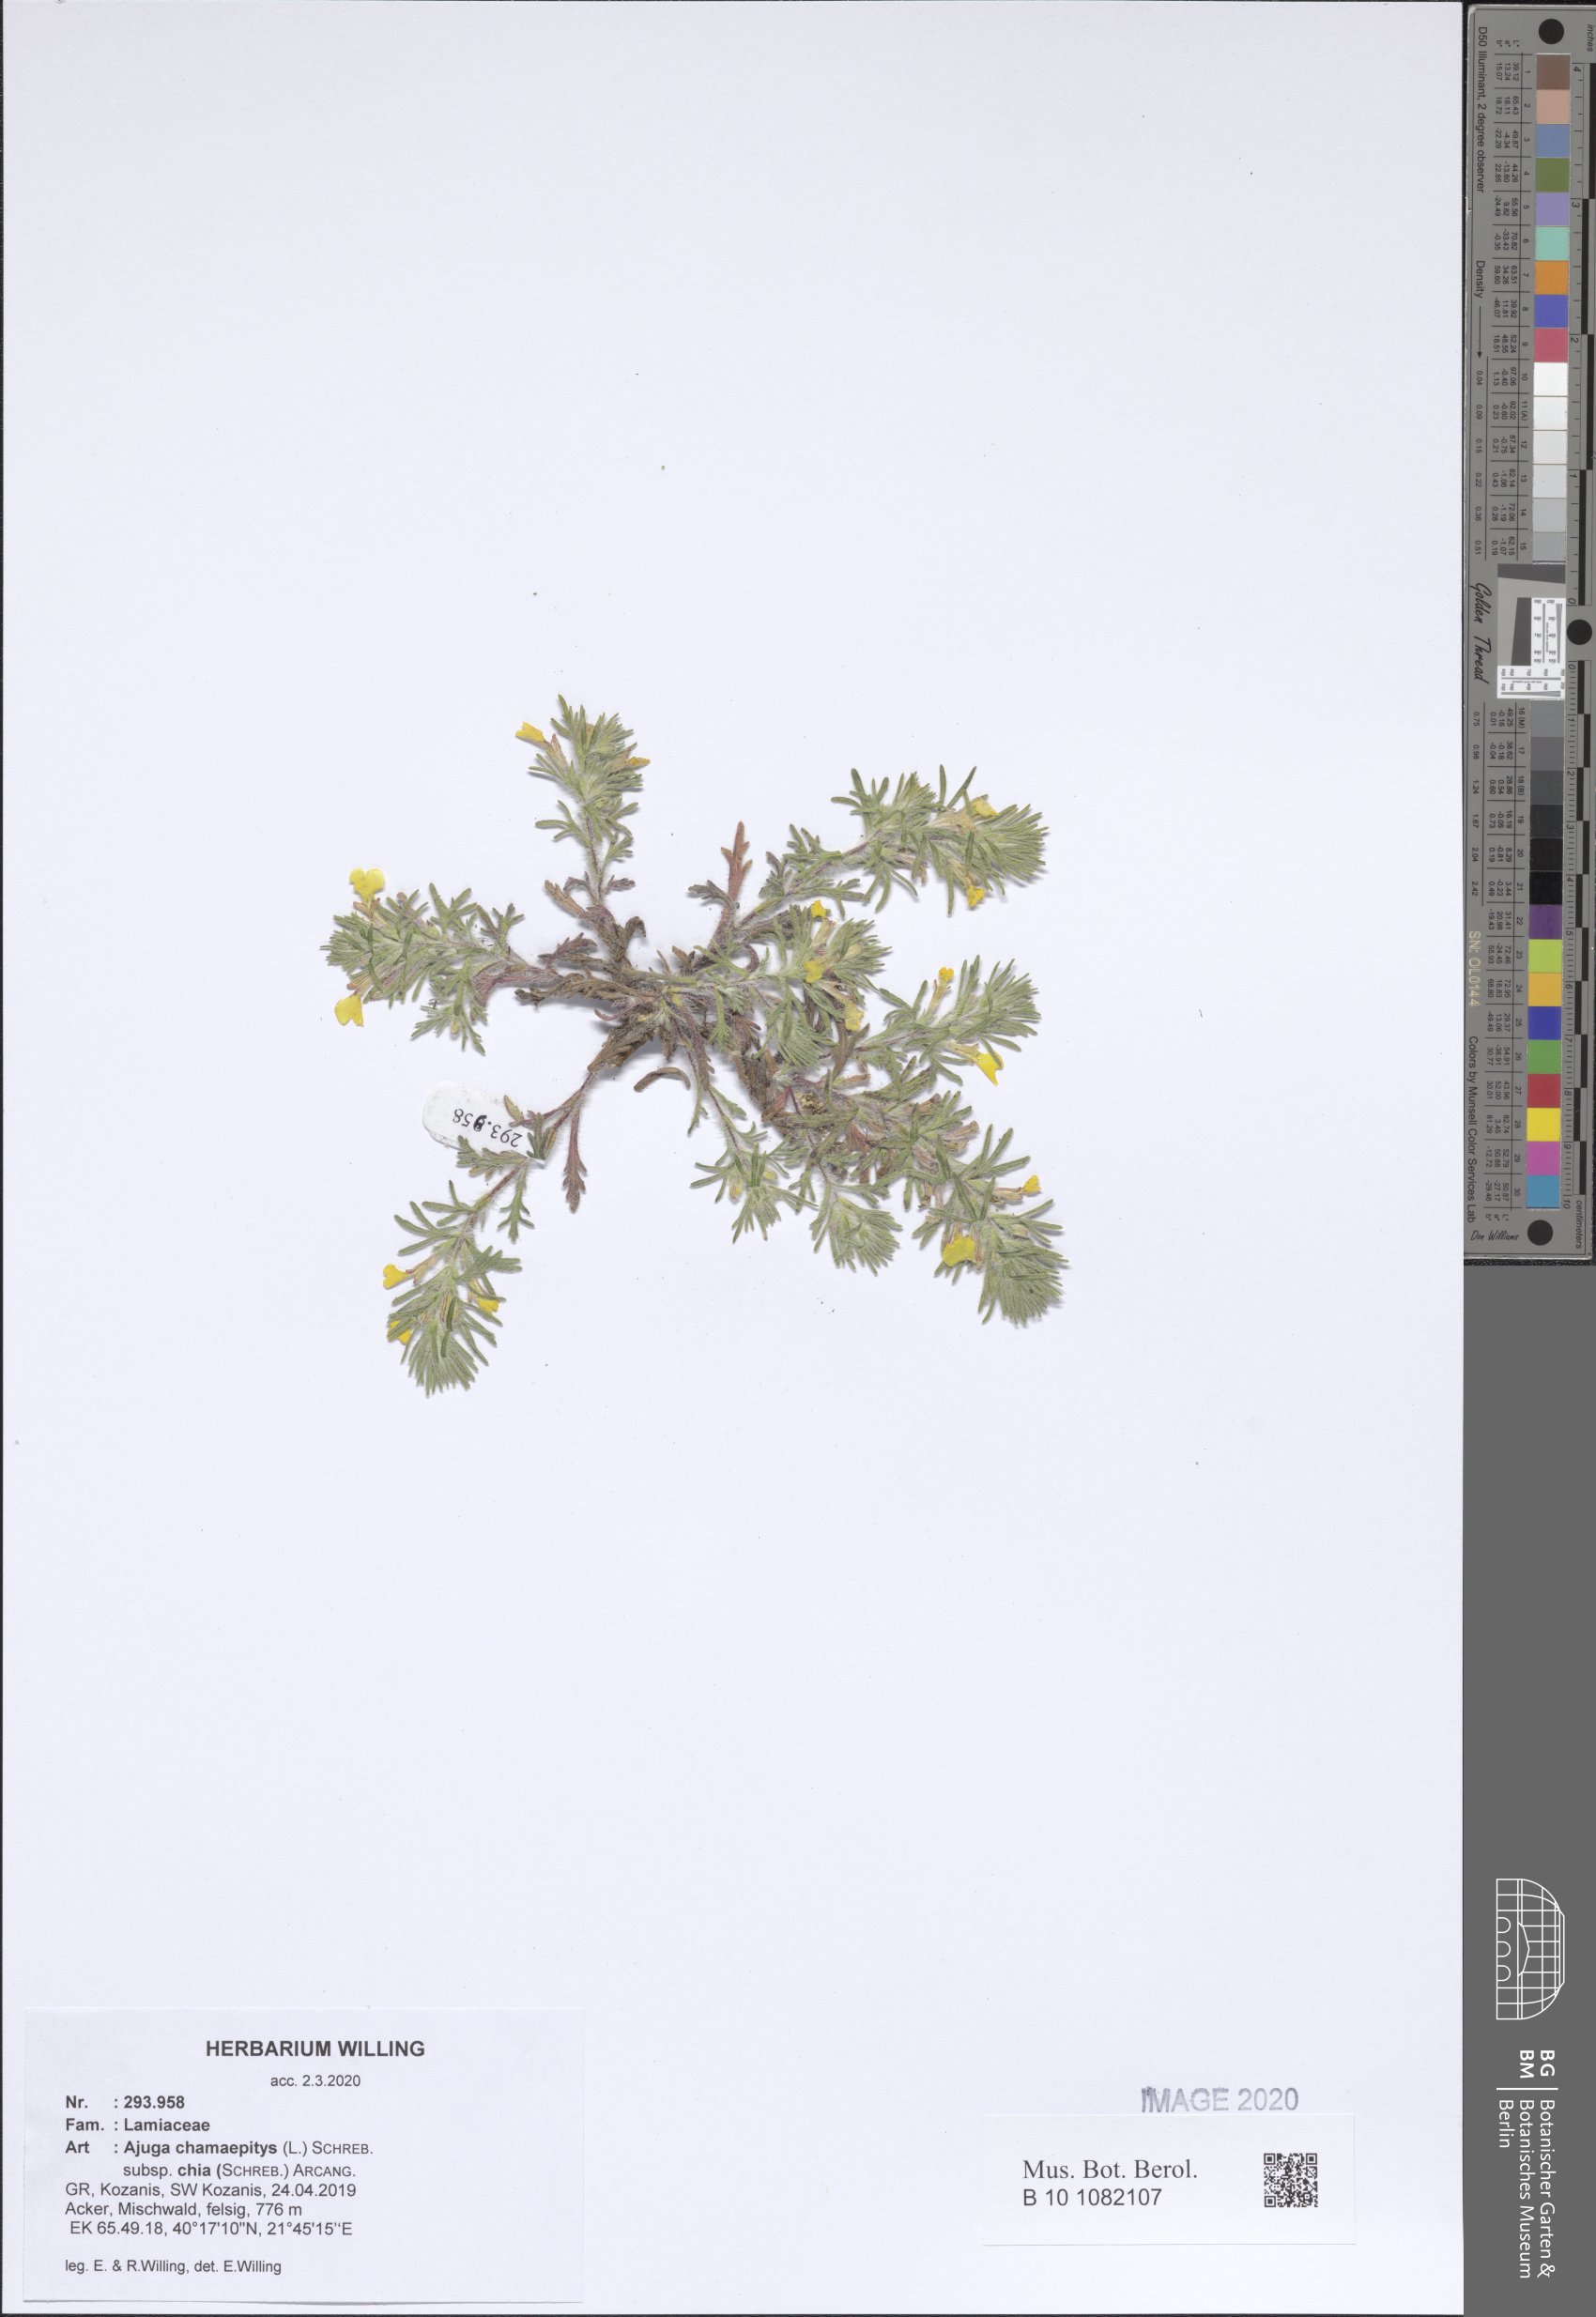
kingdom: Plantae
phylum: Tracheophyta
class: Magnoliopsida
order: Lamiales
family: Lamiaceae
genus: Ajuga
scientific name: Ajuga chamaepitys
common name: Ground-pine
